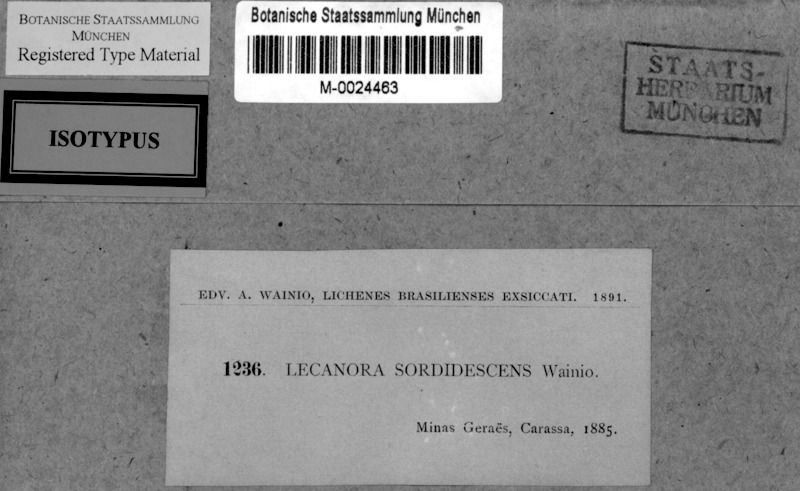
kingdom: Fungi
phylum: Ascomycota
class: Lecanoromycetes
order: Lecanorales
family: Lecanoraceae
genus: Lecanora
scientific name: Lecanora wainioana
